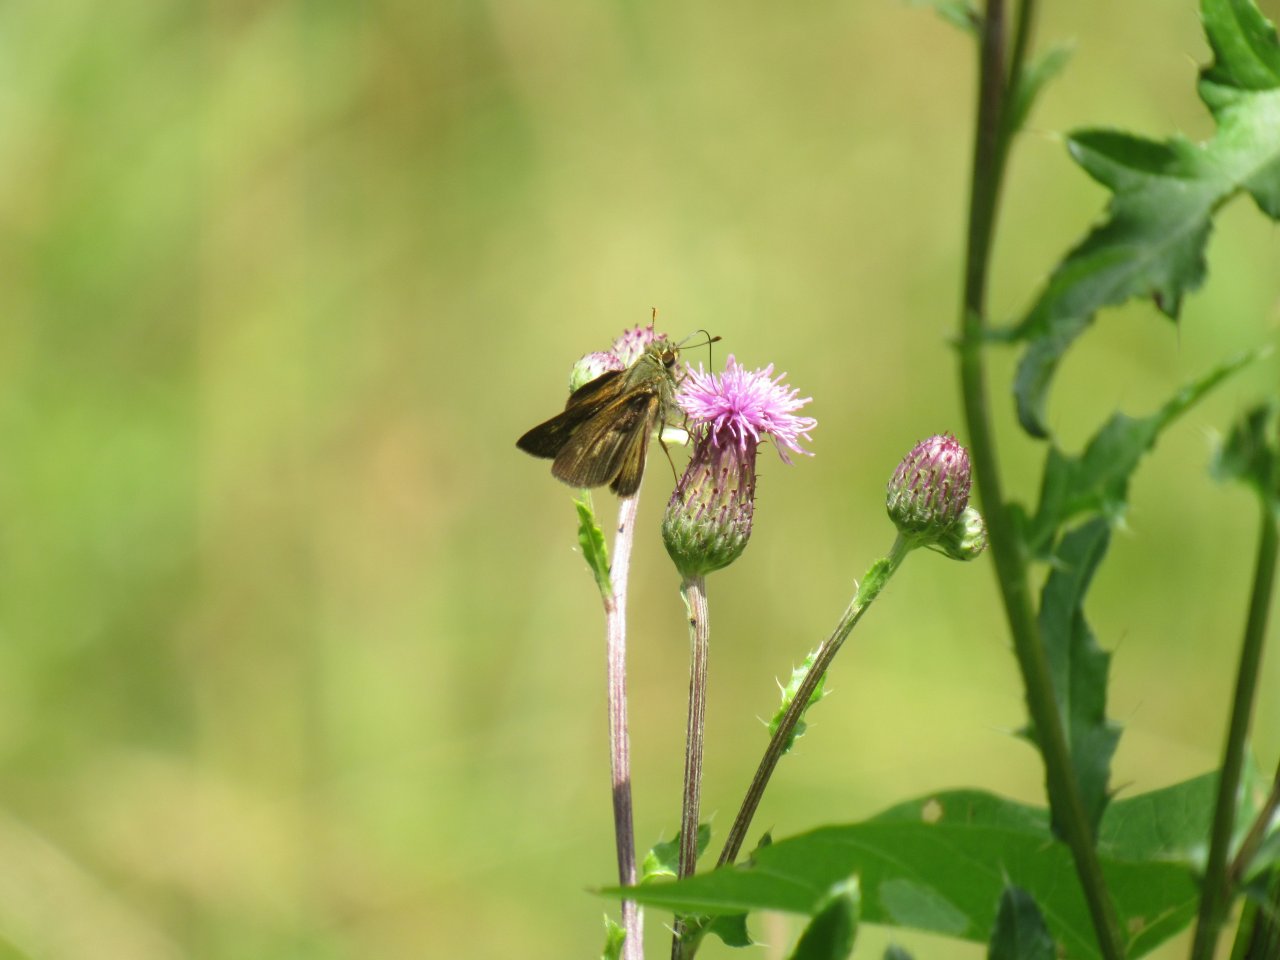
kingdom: Animalia
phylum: Arthropoda
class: Insecta
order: Lepidoptera
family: Hesperiidae
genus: Vernia
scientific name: Vernia verna
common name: Little Glassywing
